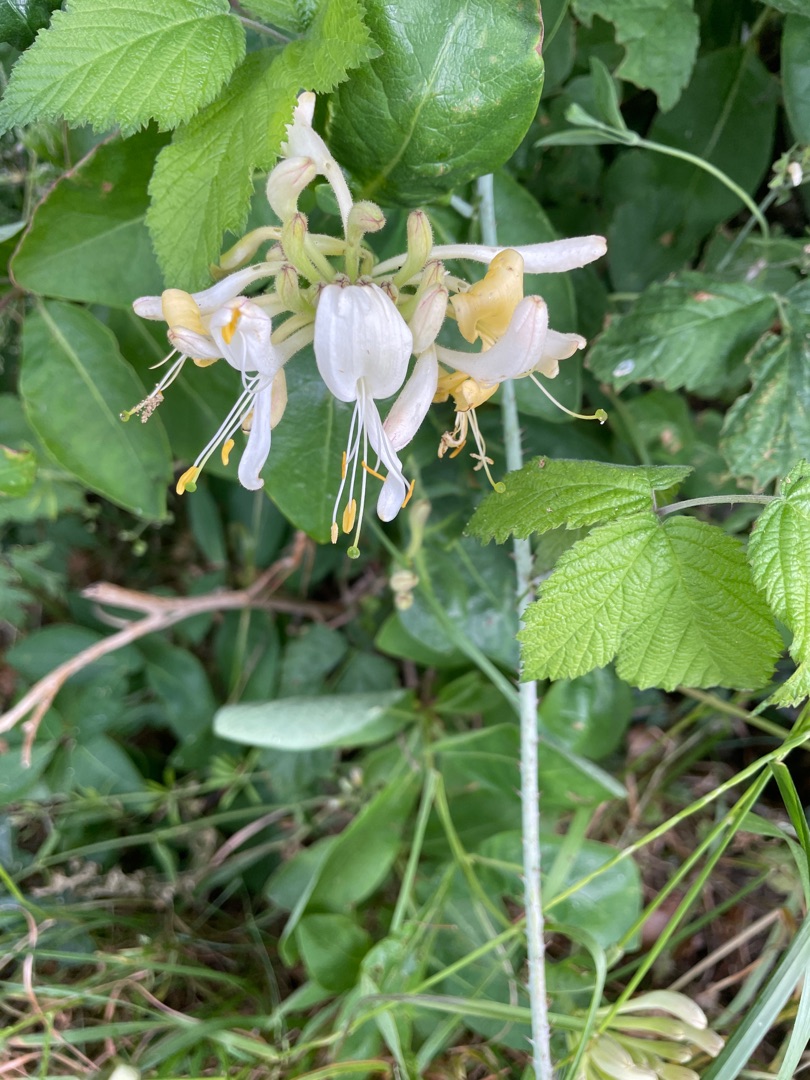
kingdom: Plantae
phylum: Tracheophyta
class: Magnoliopsida
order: Dipsacales
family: Caprifoliaceae
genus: Lonicera
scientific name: Lonicera periclymenum
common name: Almindelig gedeblad
